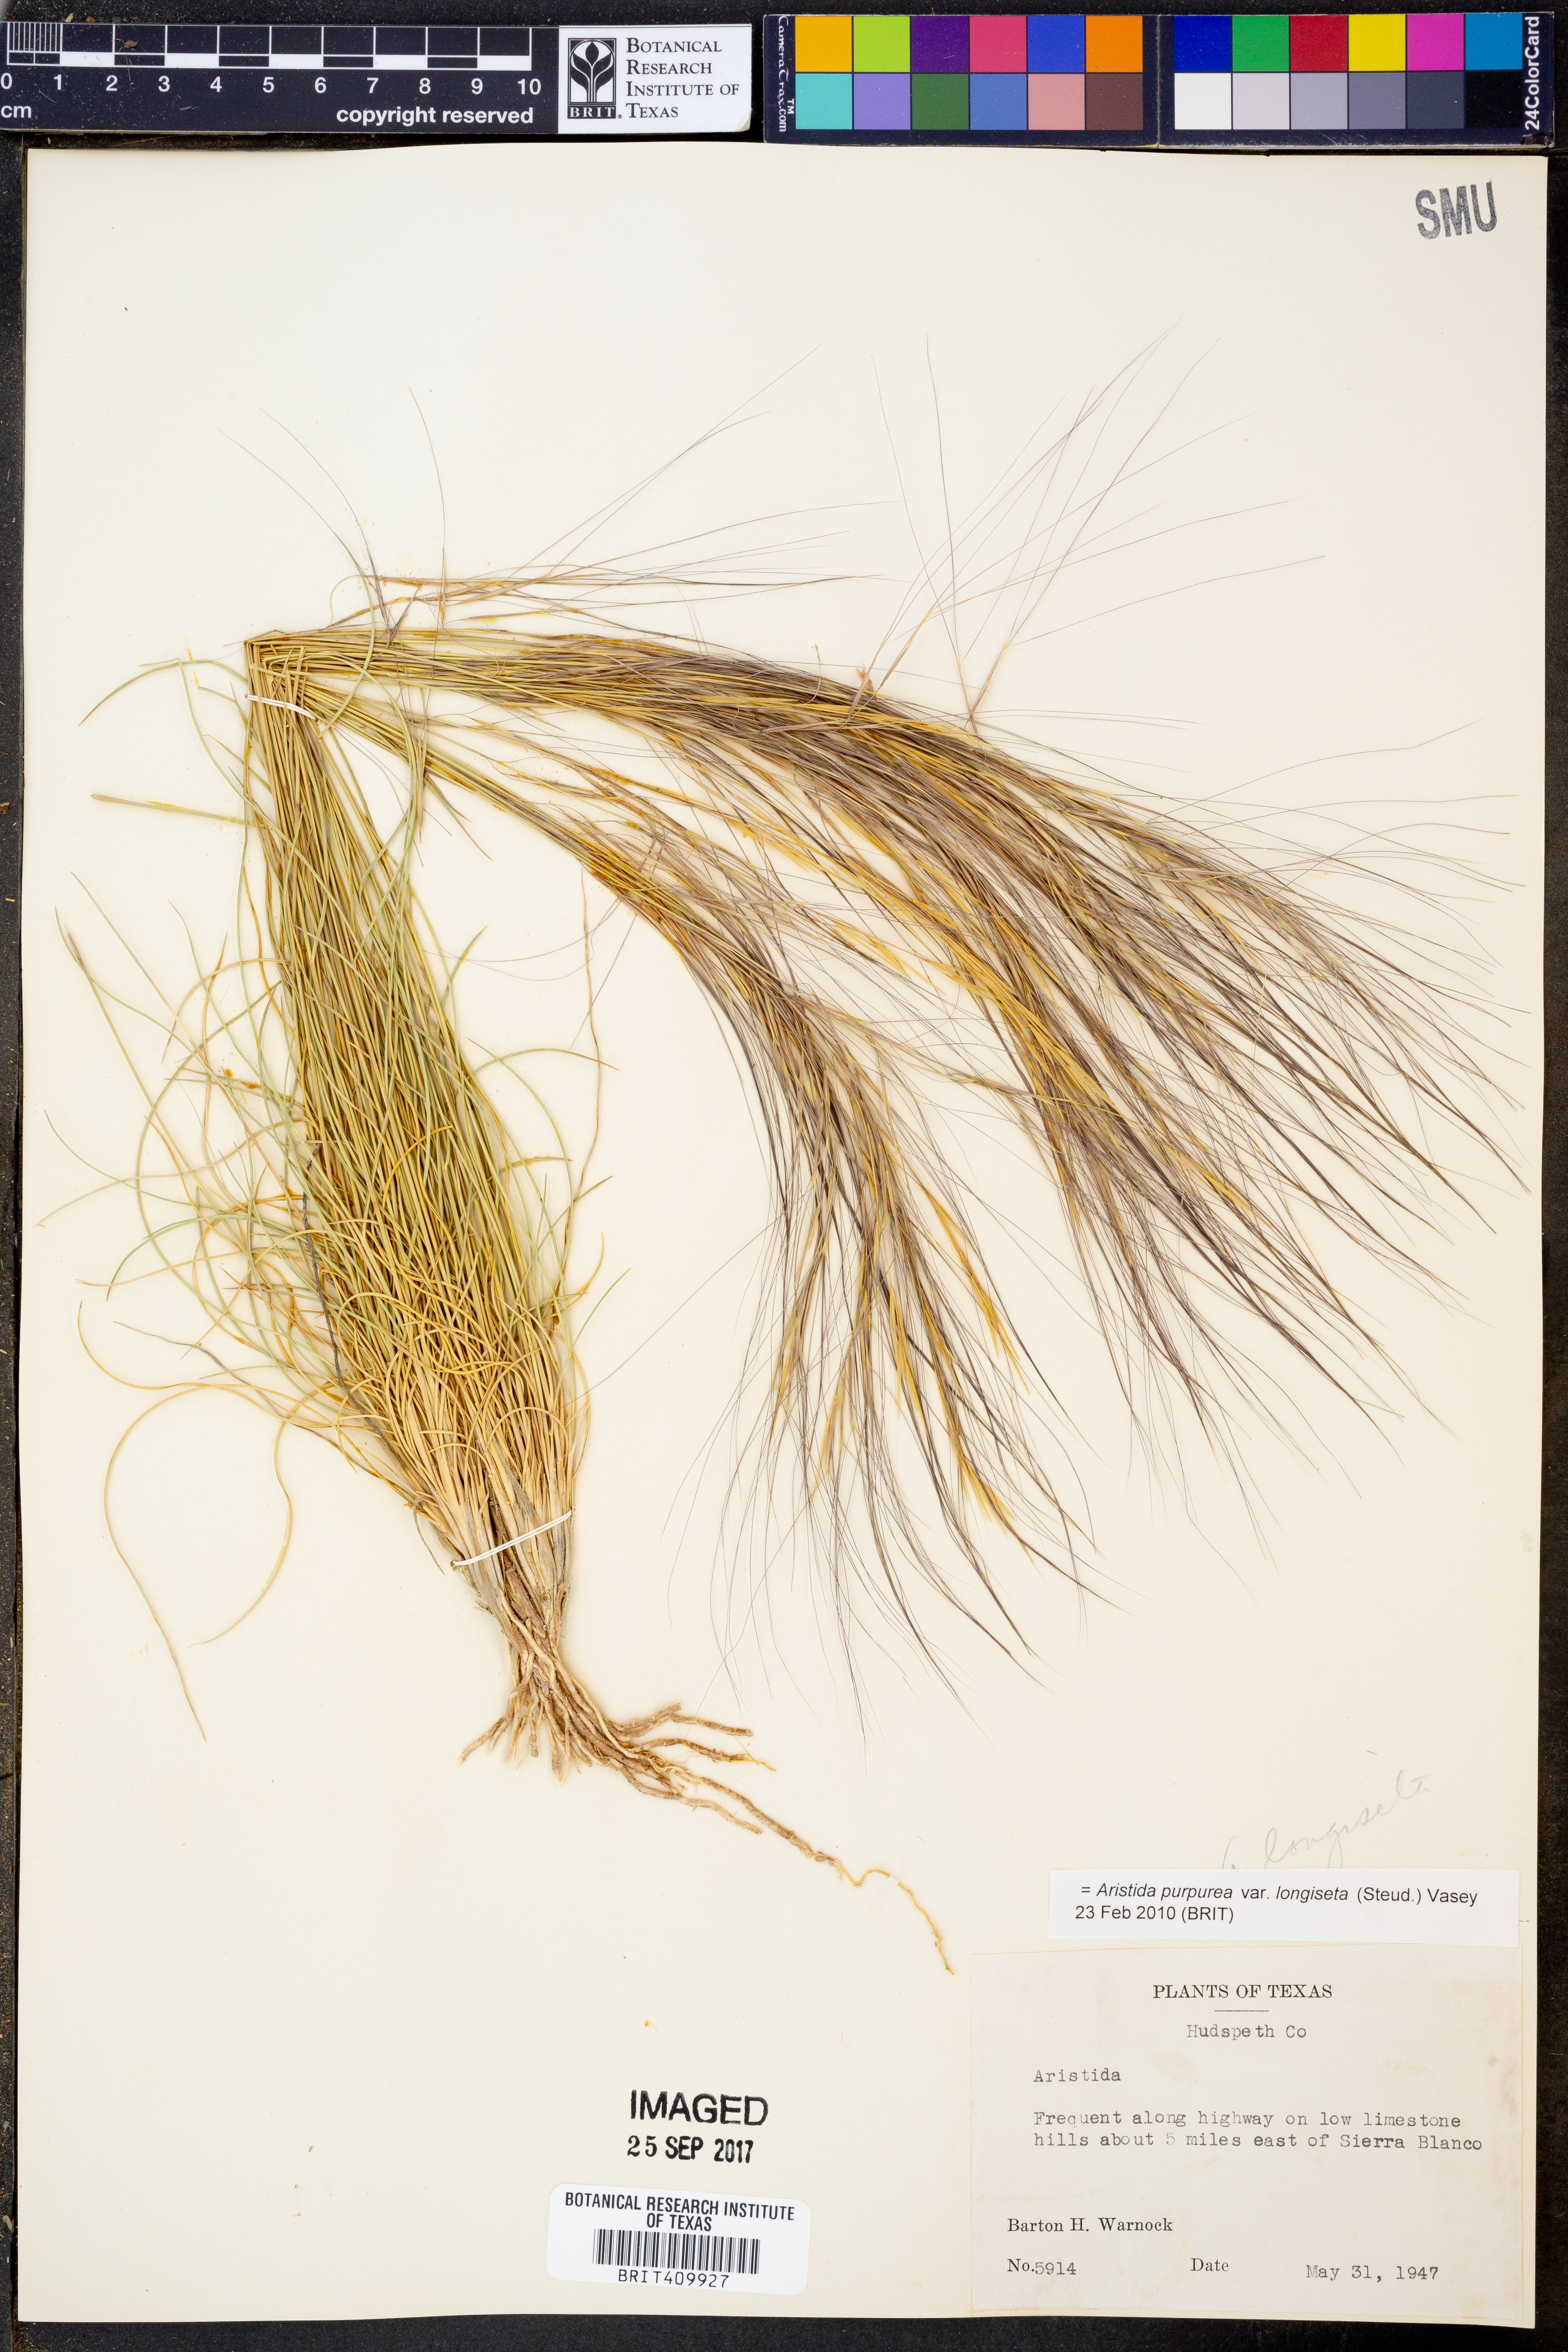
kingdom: Plantae
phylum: Tracheophyta
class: Liliopsida
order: Poales
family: Poaceae
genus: Aristida
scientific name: Aristida longiseta
